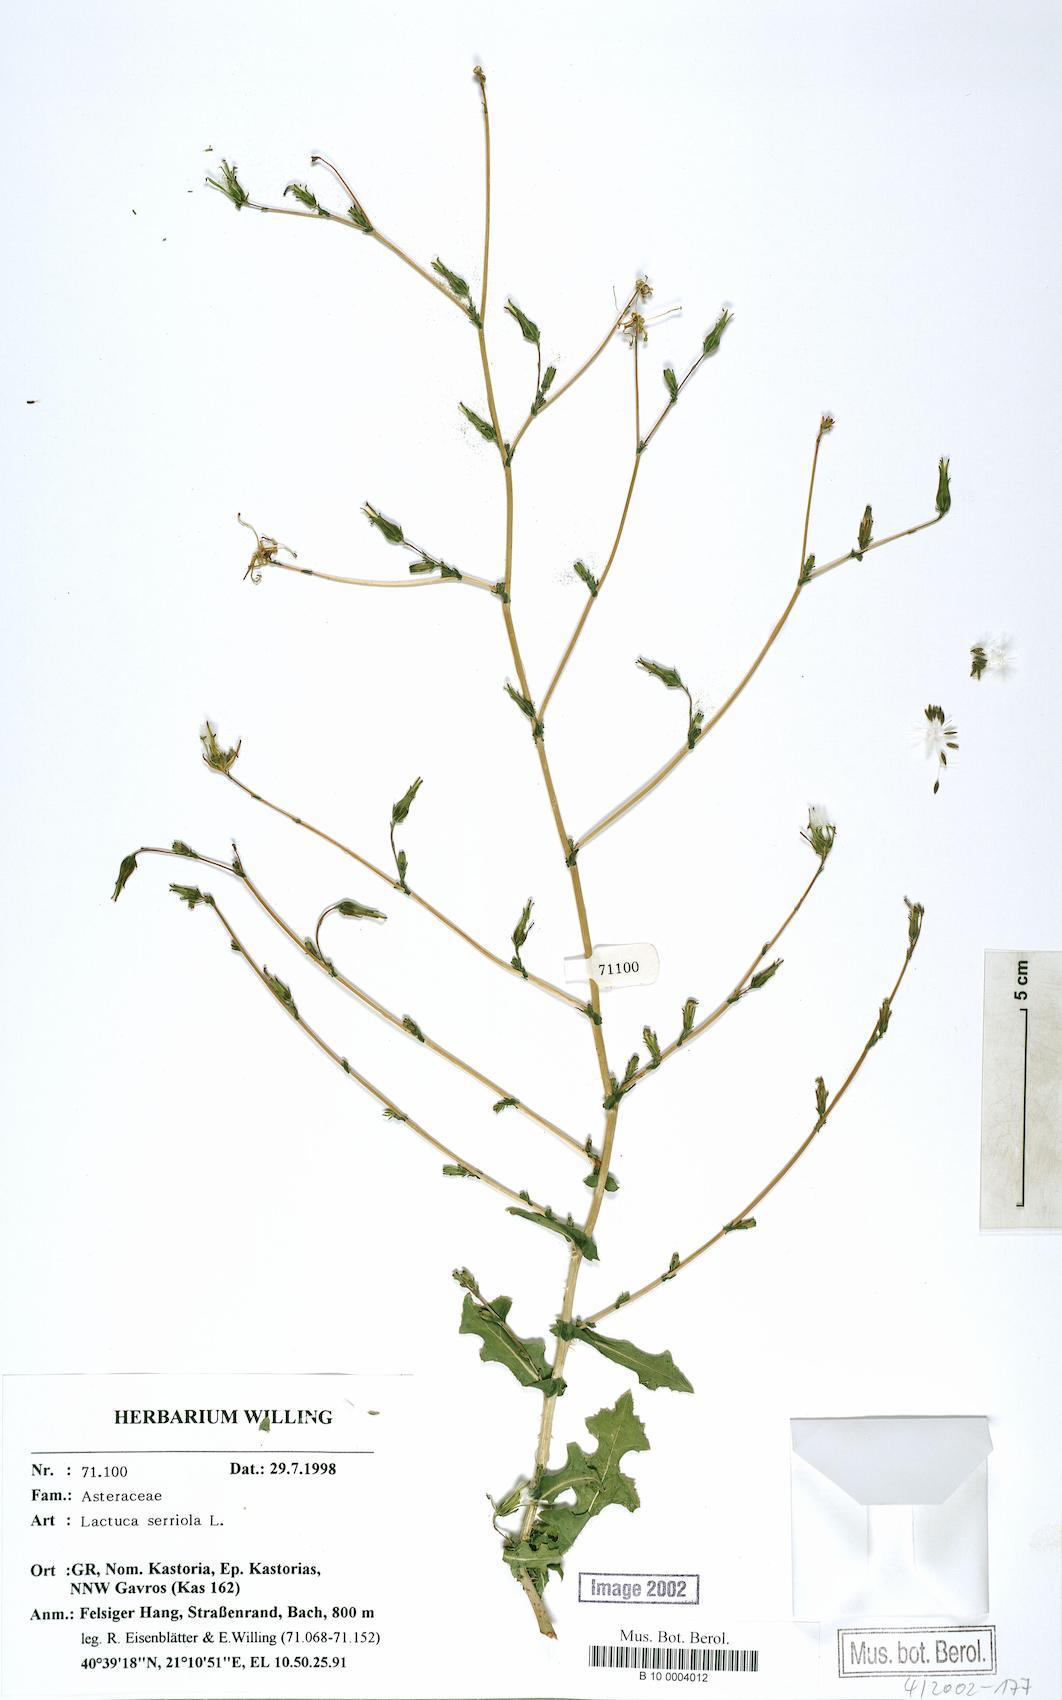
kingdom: Plantae
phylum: Tracheophyta
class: Magnoliopsida
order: Asterales
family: Asteraceae
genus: Lactuca
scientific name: Lactuca serriola
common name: Prickly lettuce
